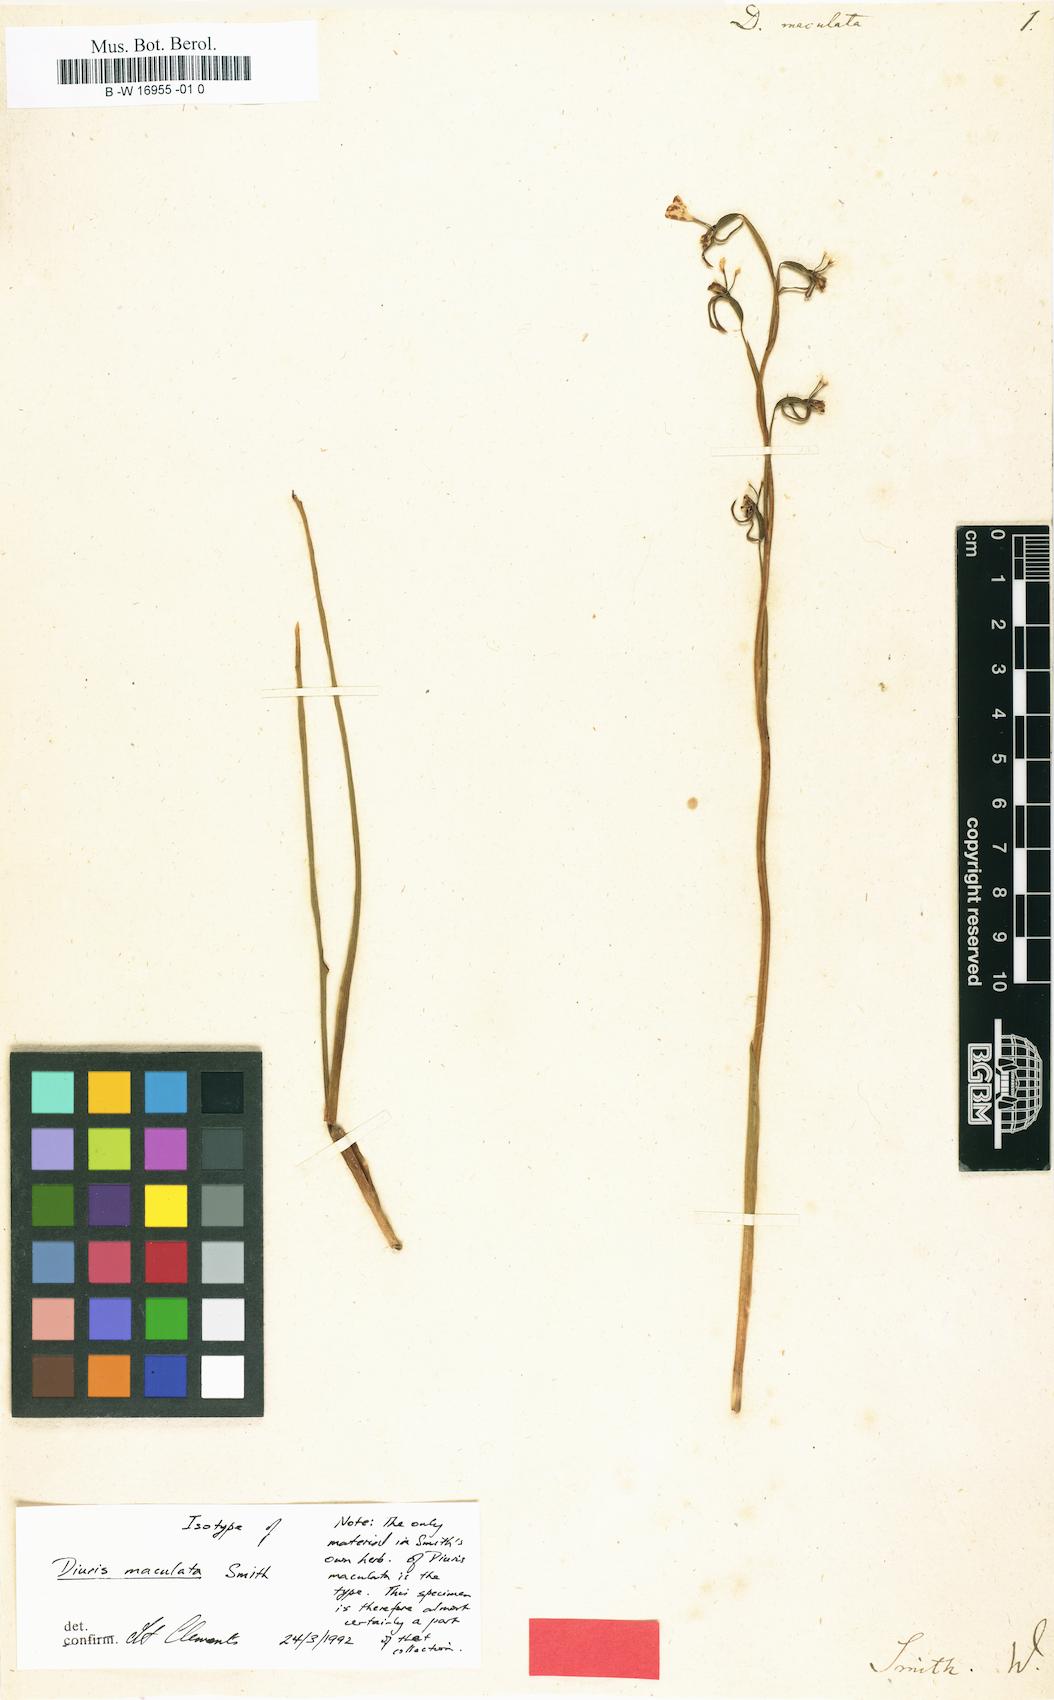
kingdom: Plantae
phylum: Tracheophyta
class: Liliopsida
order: Asparagales
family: Orchidaceae
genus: Diuris
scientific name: Diuris maculata
